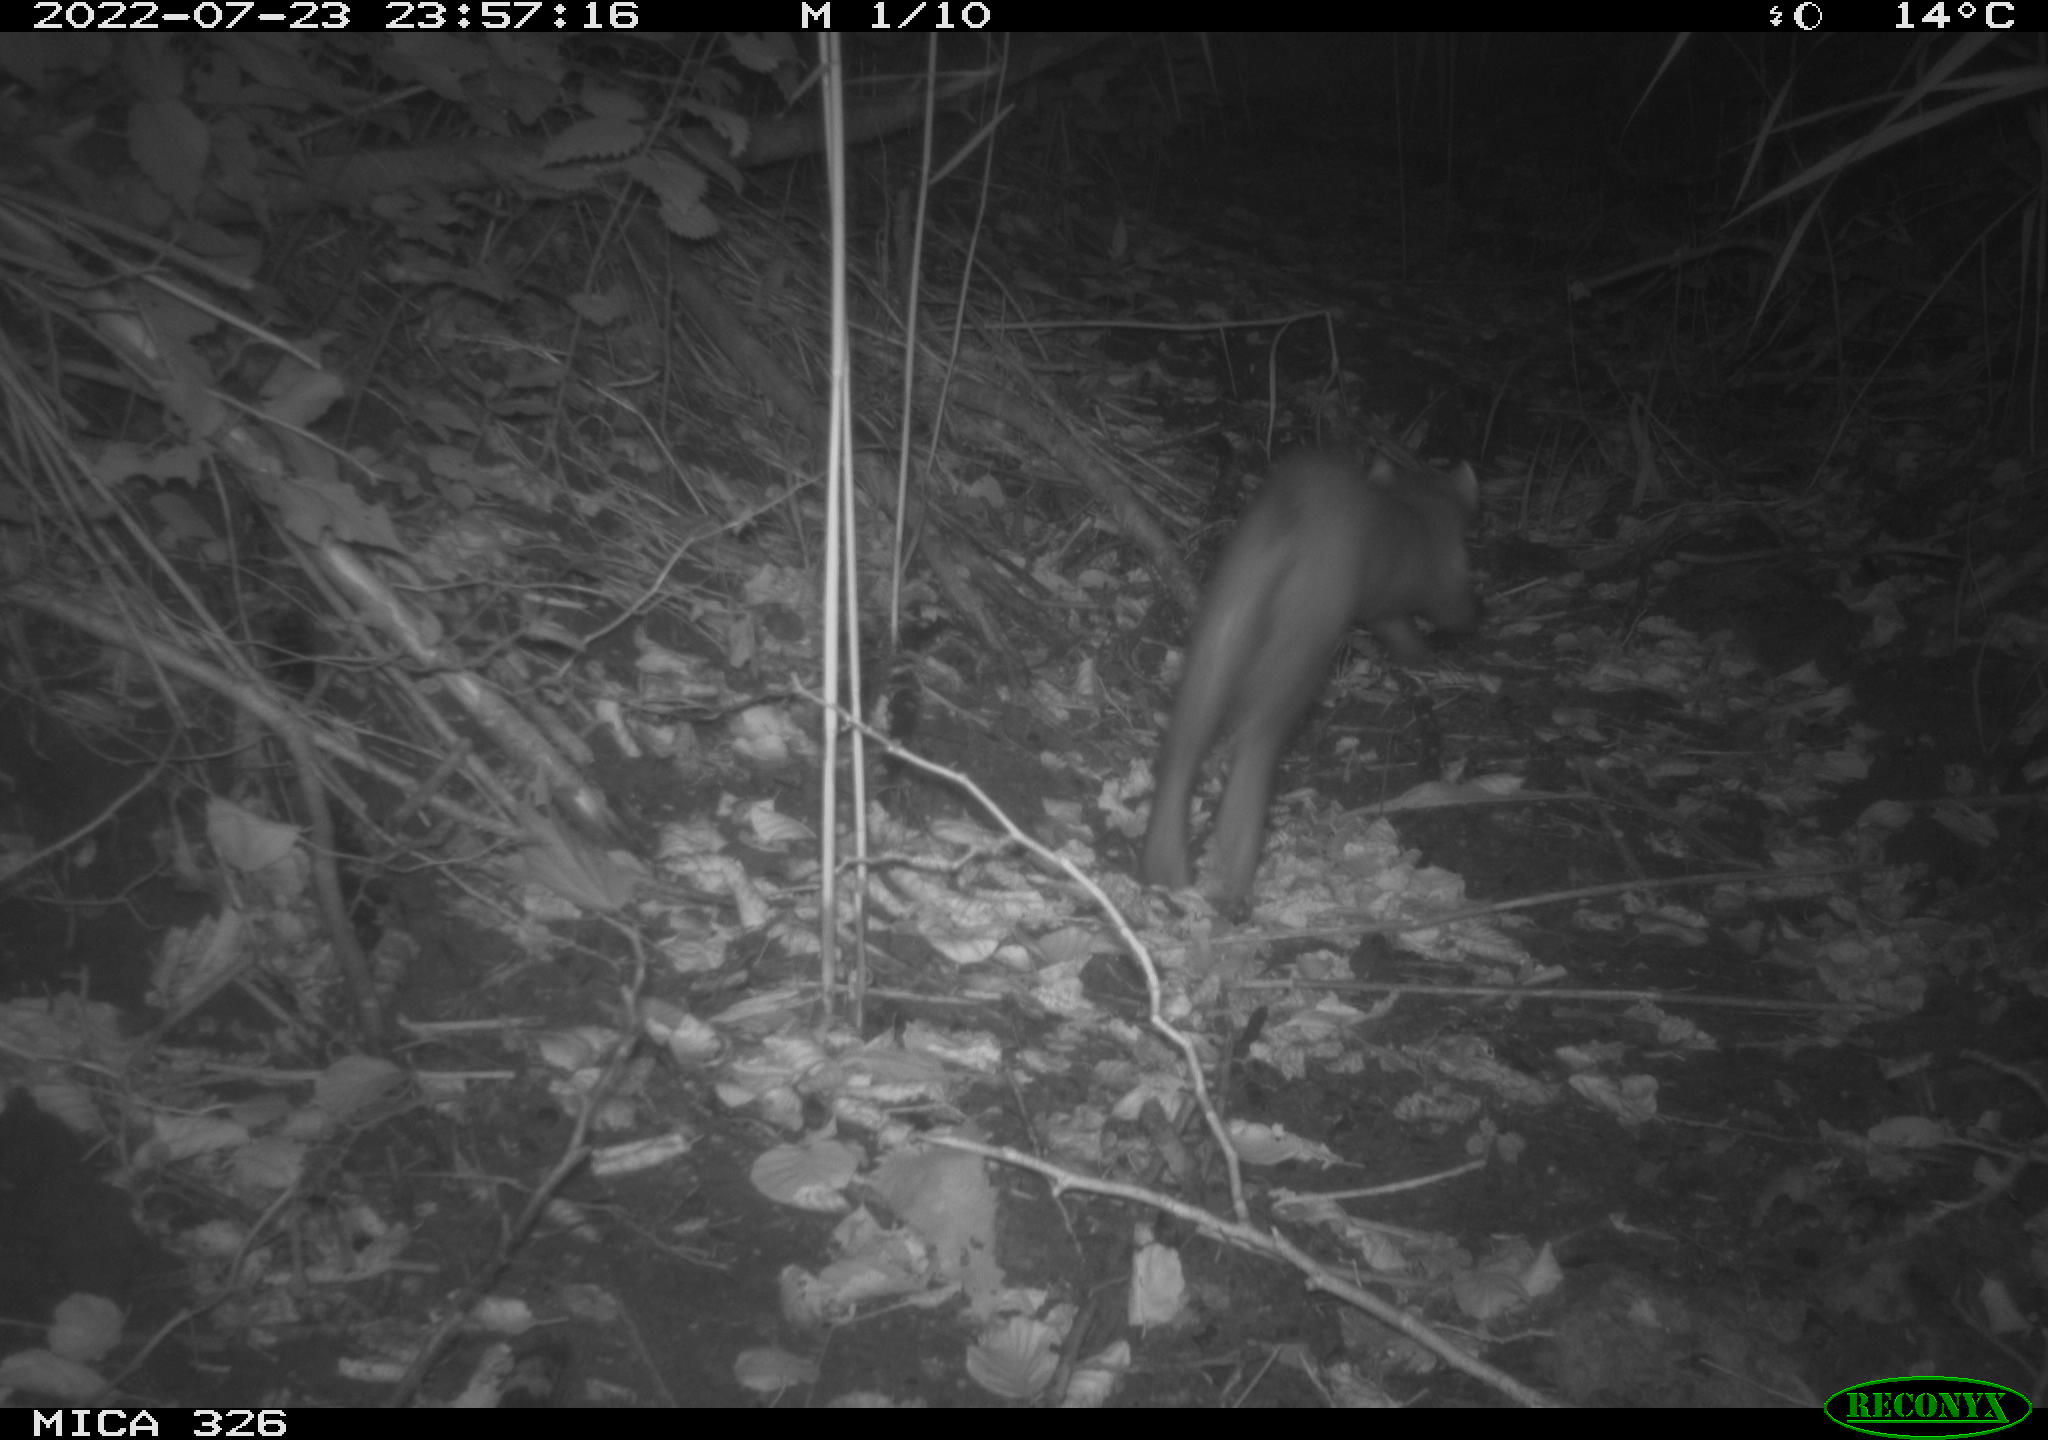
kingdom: Animalia
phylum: Chordata
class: Mammalia
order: Carnivora
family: Mustelidae
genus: Martes
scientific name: Martes martes
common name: European pine marten
